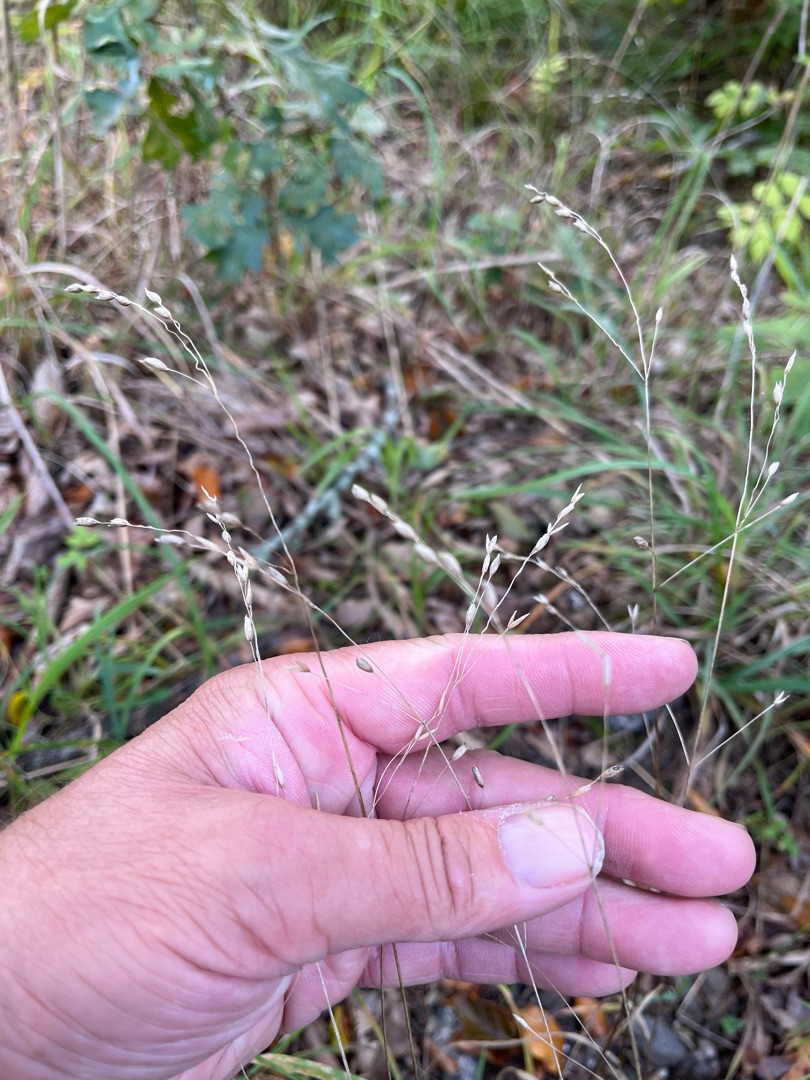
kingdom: Plantae
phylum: Tracheophyta
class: Liliopsida
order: Poales
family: Poaceae
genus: Melica
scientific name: Melica uniflora
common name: Enblomstret flitteraks
